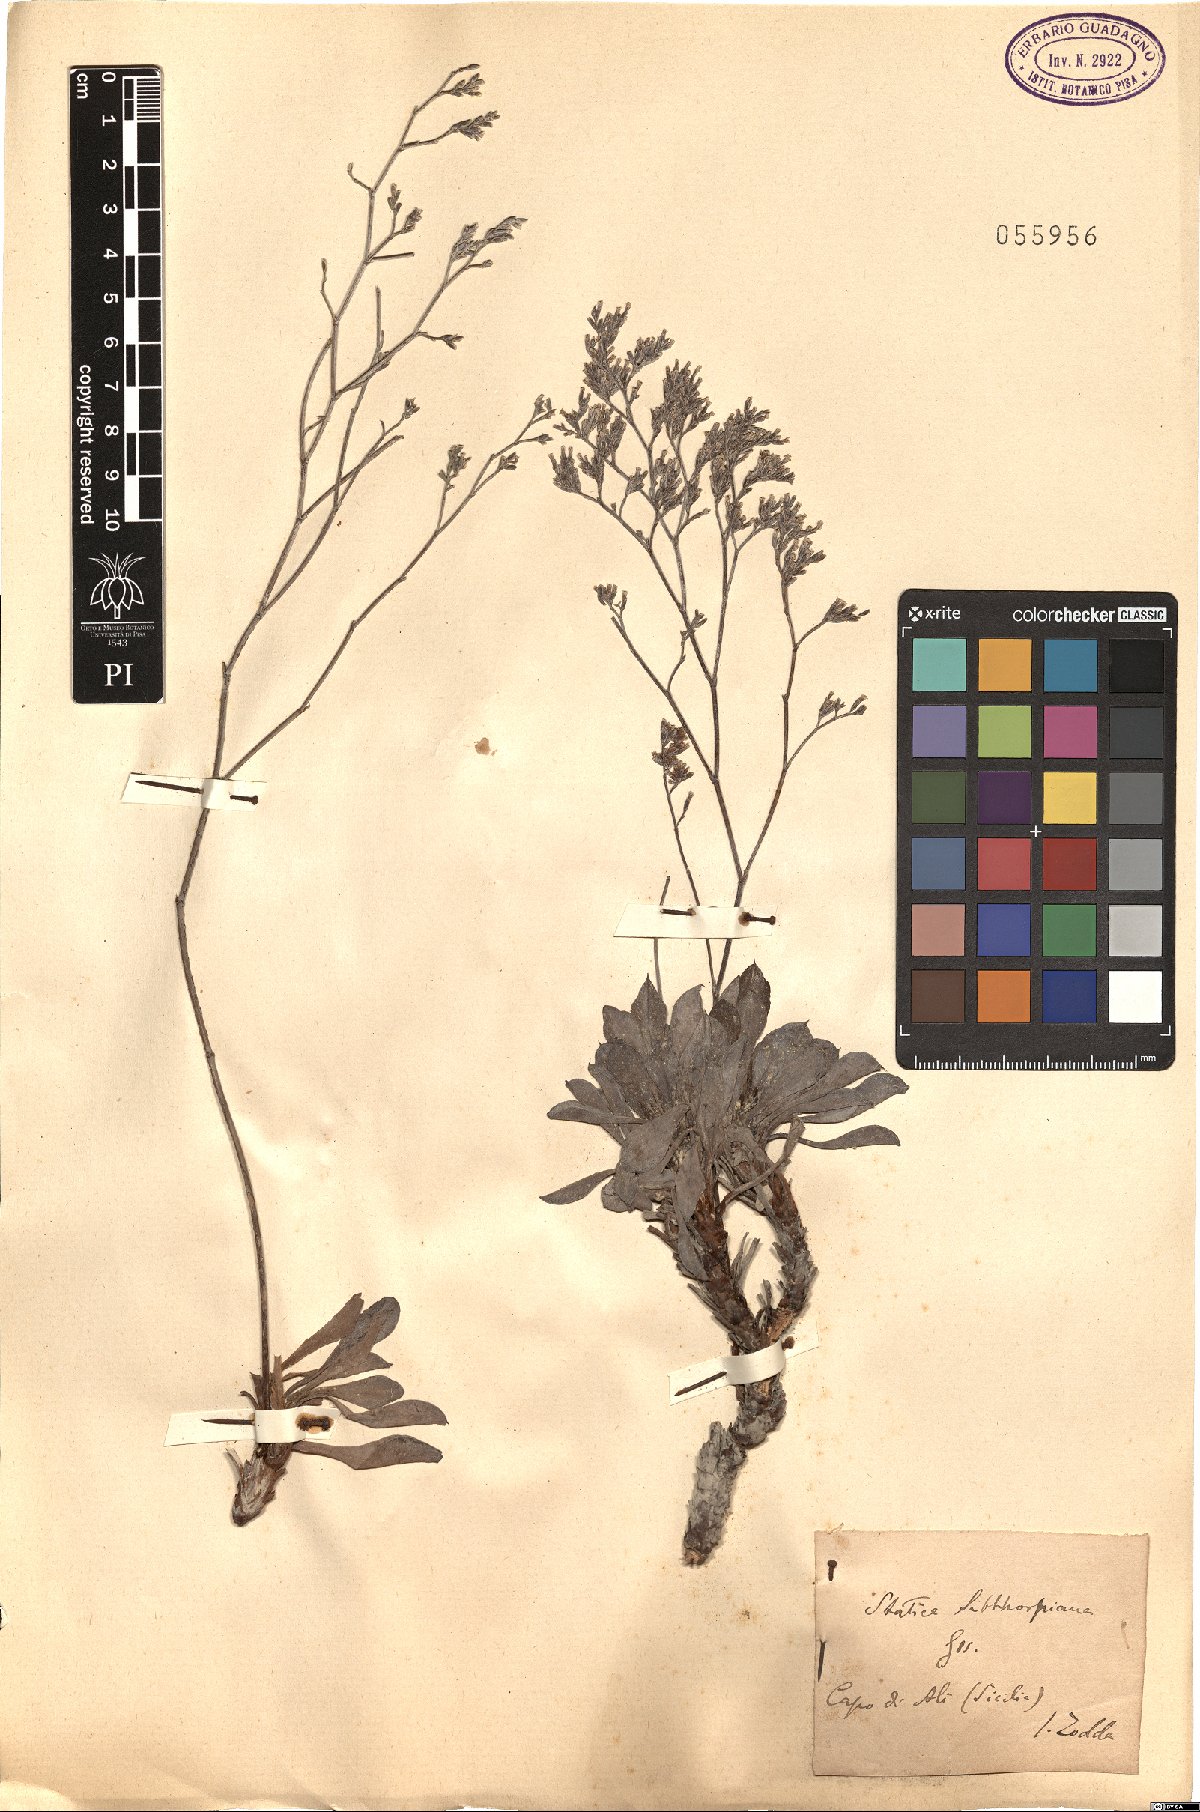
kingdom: Plantae
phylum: Tracheophyta
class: Magnoliopsida
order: Caryophyllales
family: Plumbaginaceae
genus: Limonium
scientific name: Limonium sibthorpianum
